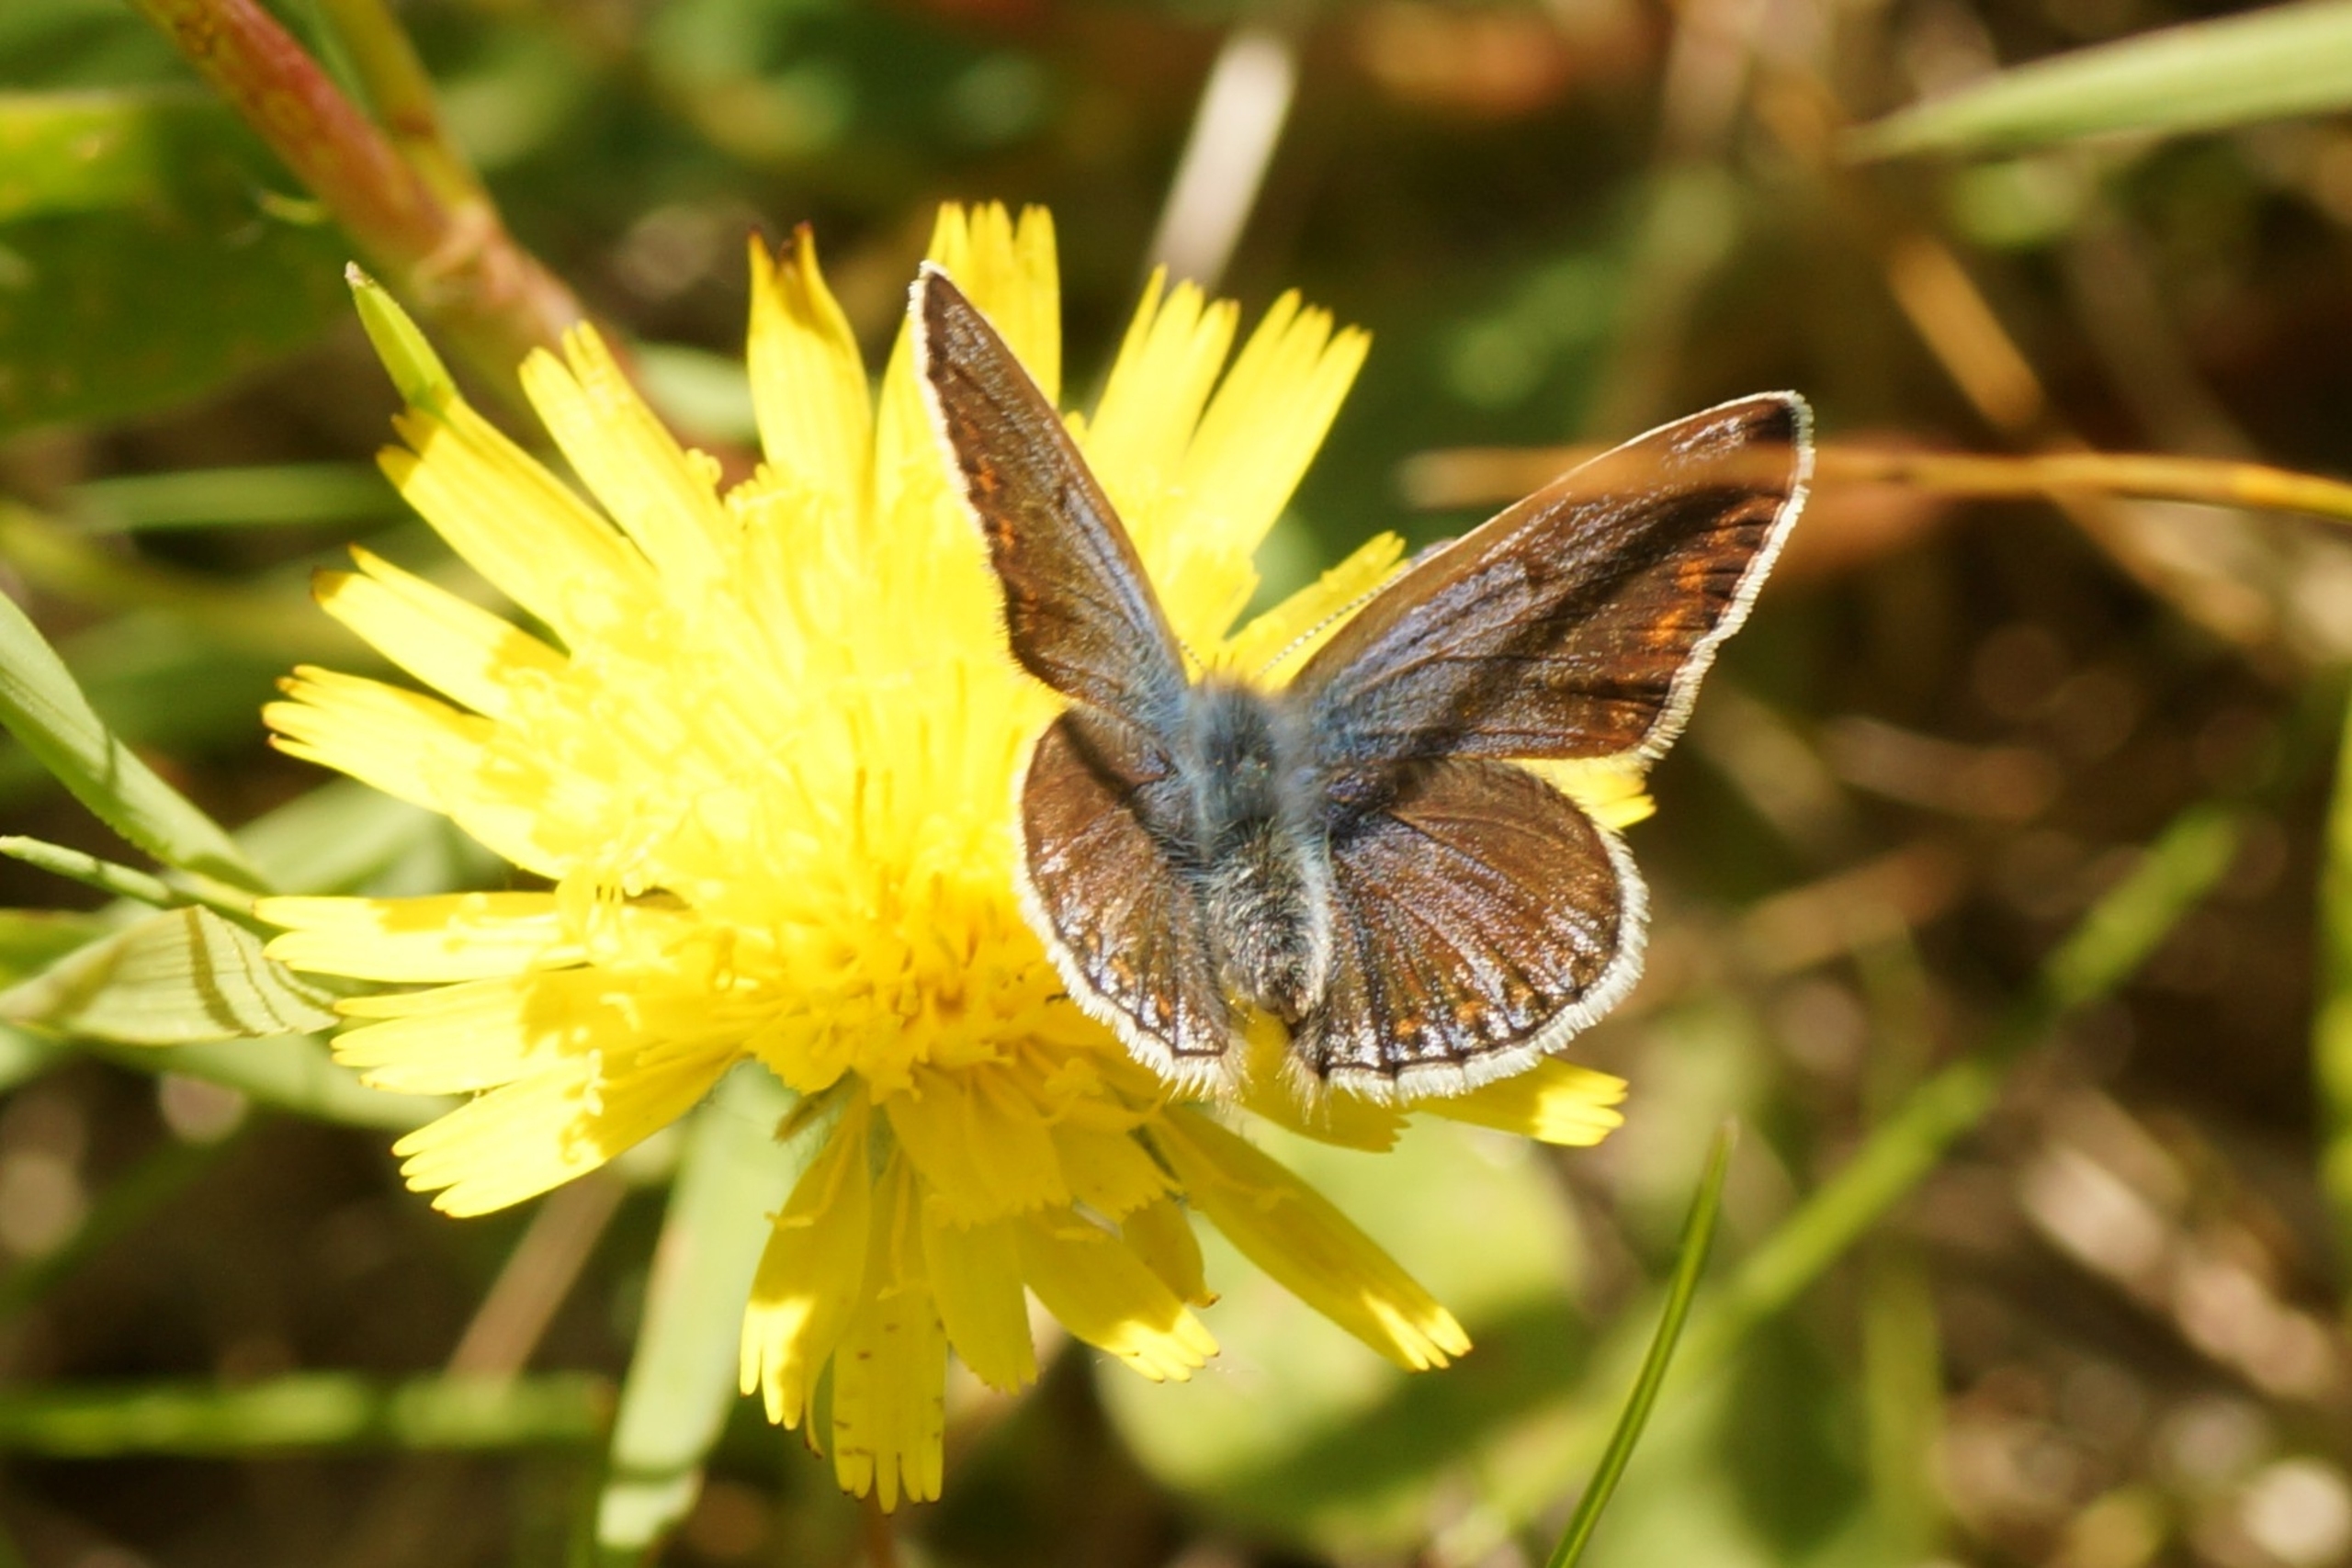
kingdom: Animalia
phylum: Arthropoda
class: Insecta
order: Lepidoptera
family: Lycaenidae
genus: Polyommatus
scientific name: Polyommatus icarus
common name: Almindelig blåfugl
